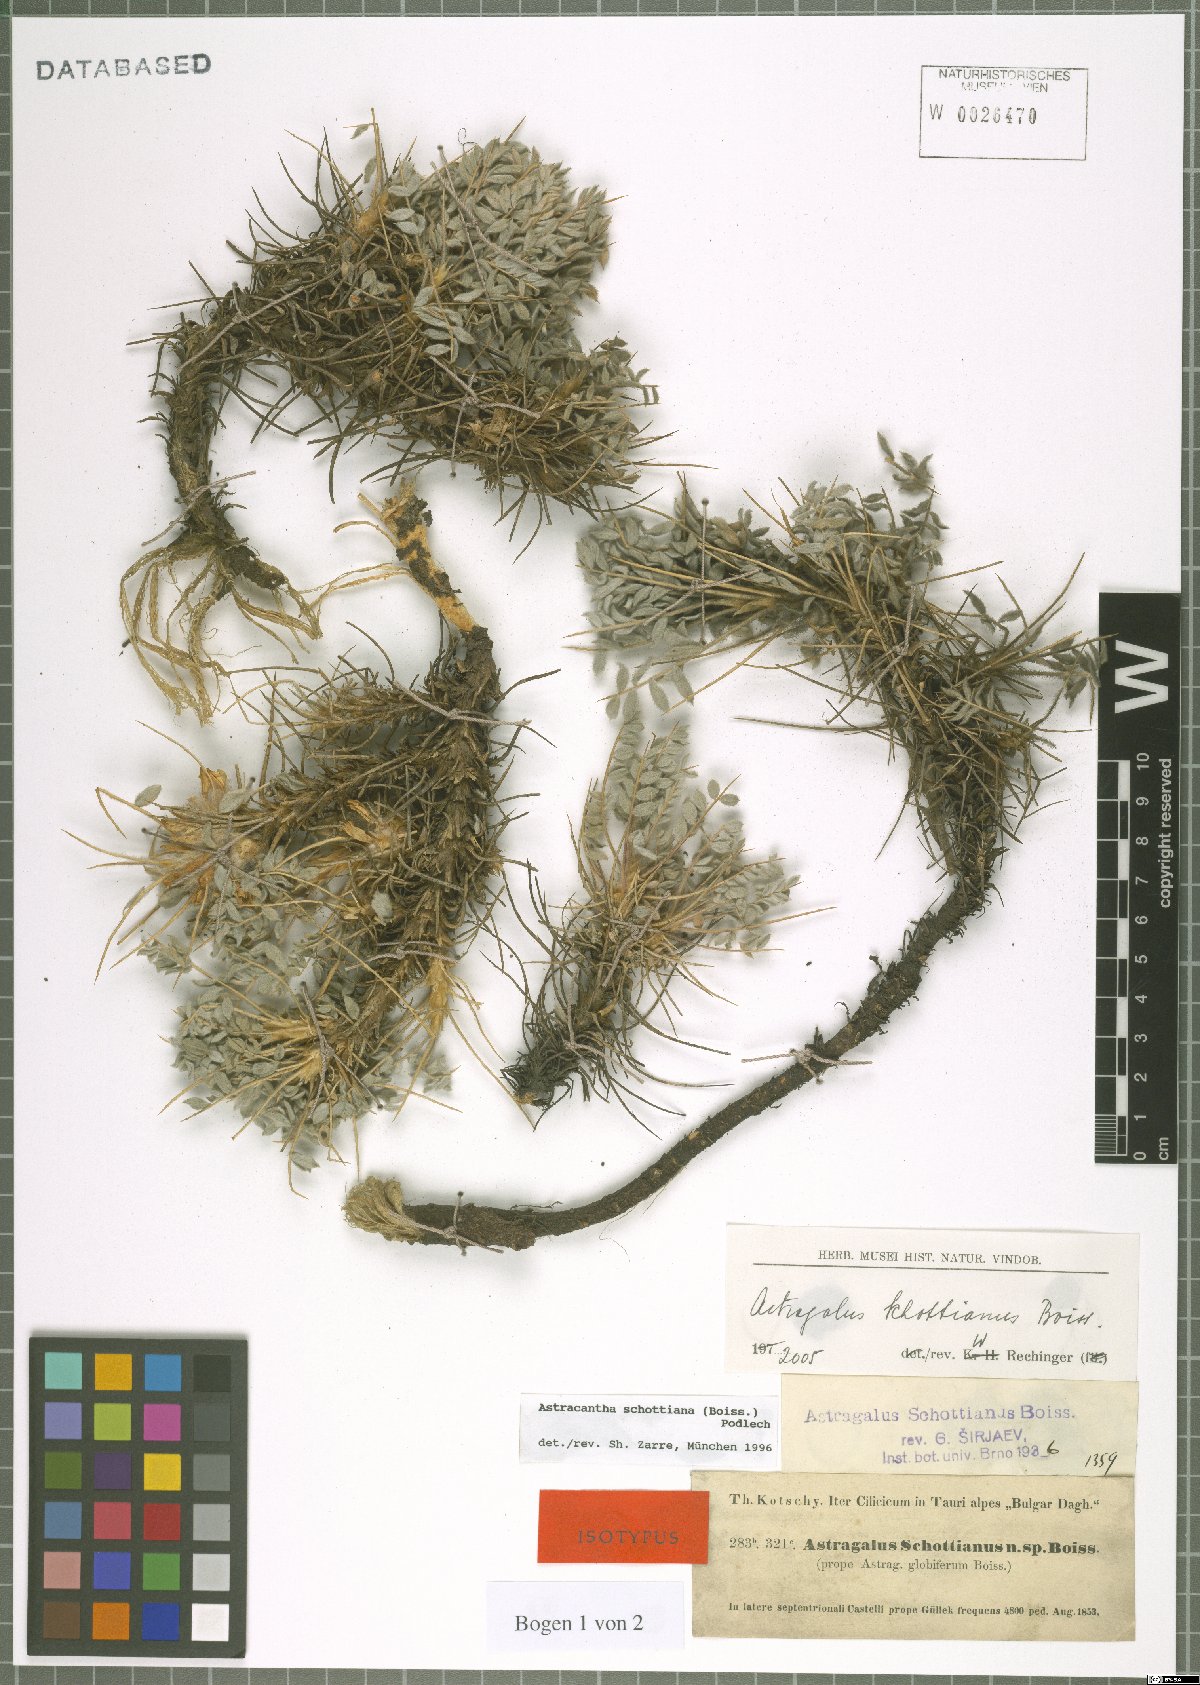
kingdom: Plantae
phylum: Tracheophyta
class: Magnoliopsida
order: Fabales
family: Fabaceae
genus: Astragalus
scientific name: Astragalus schottianus
